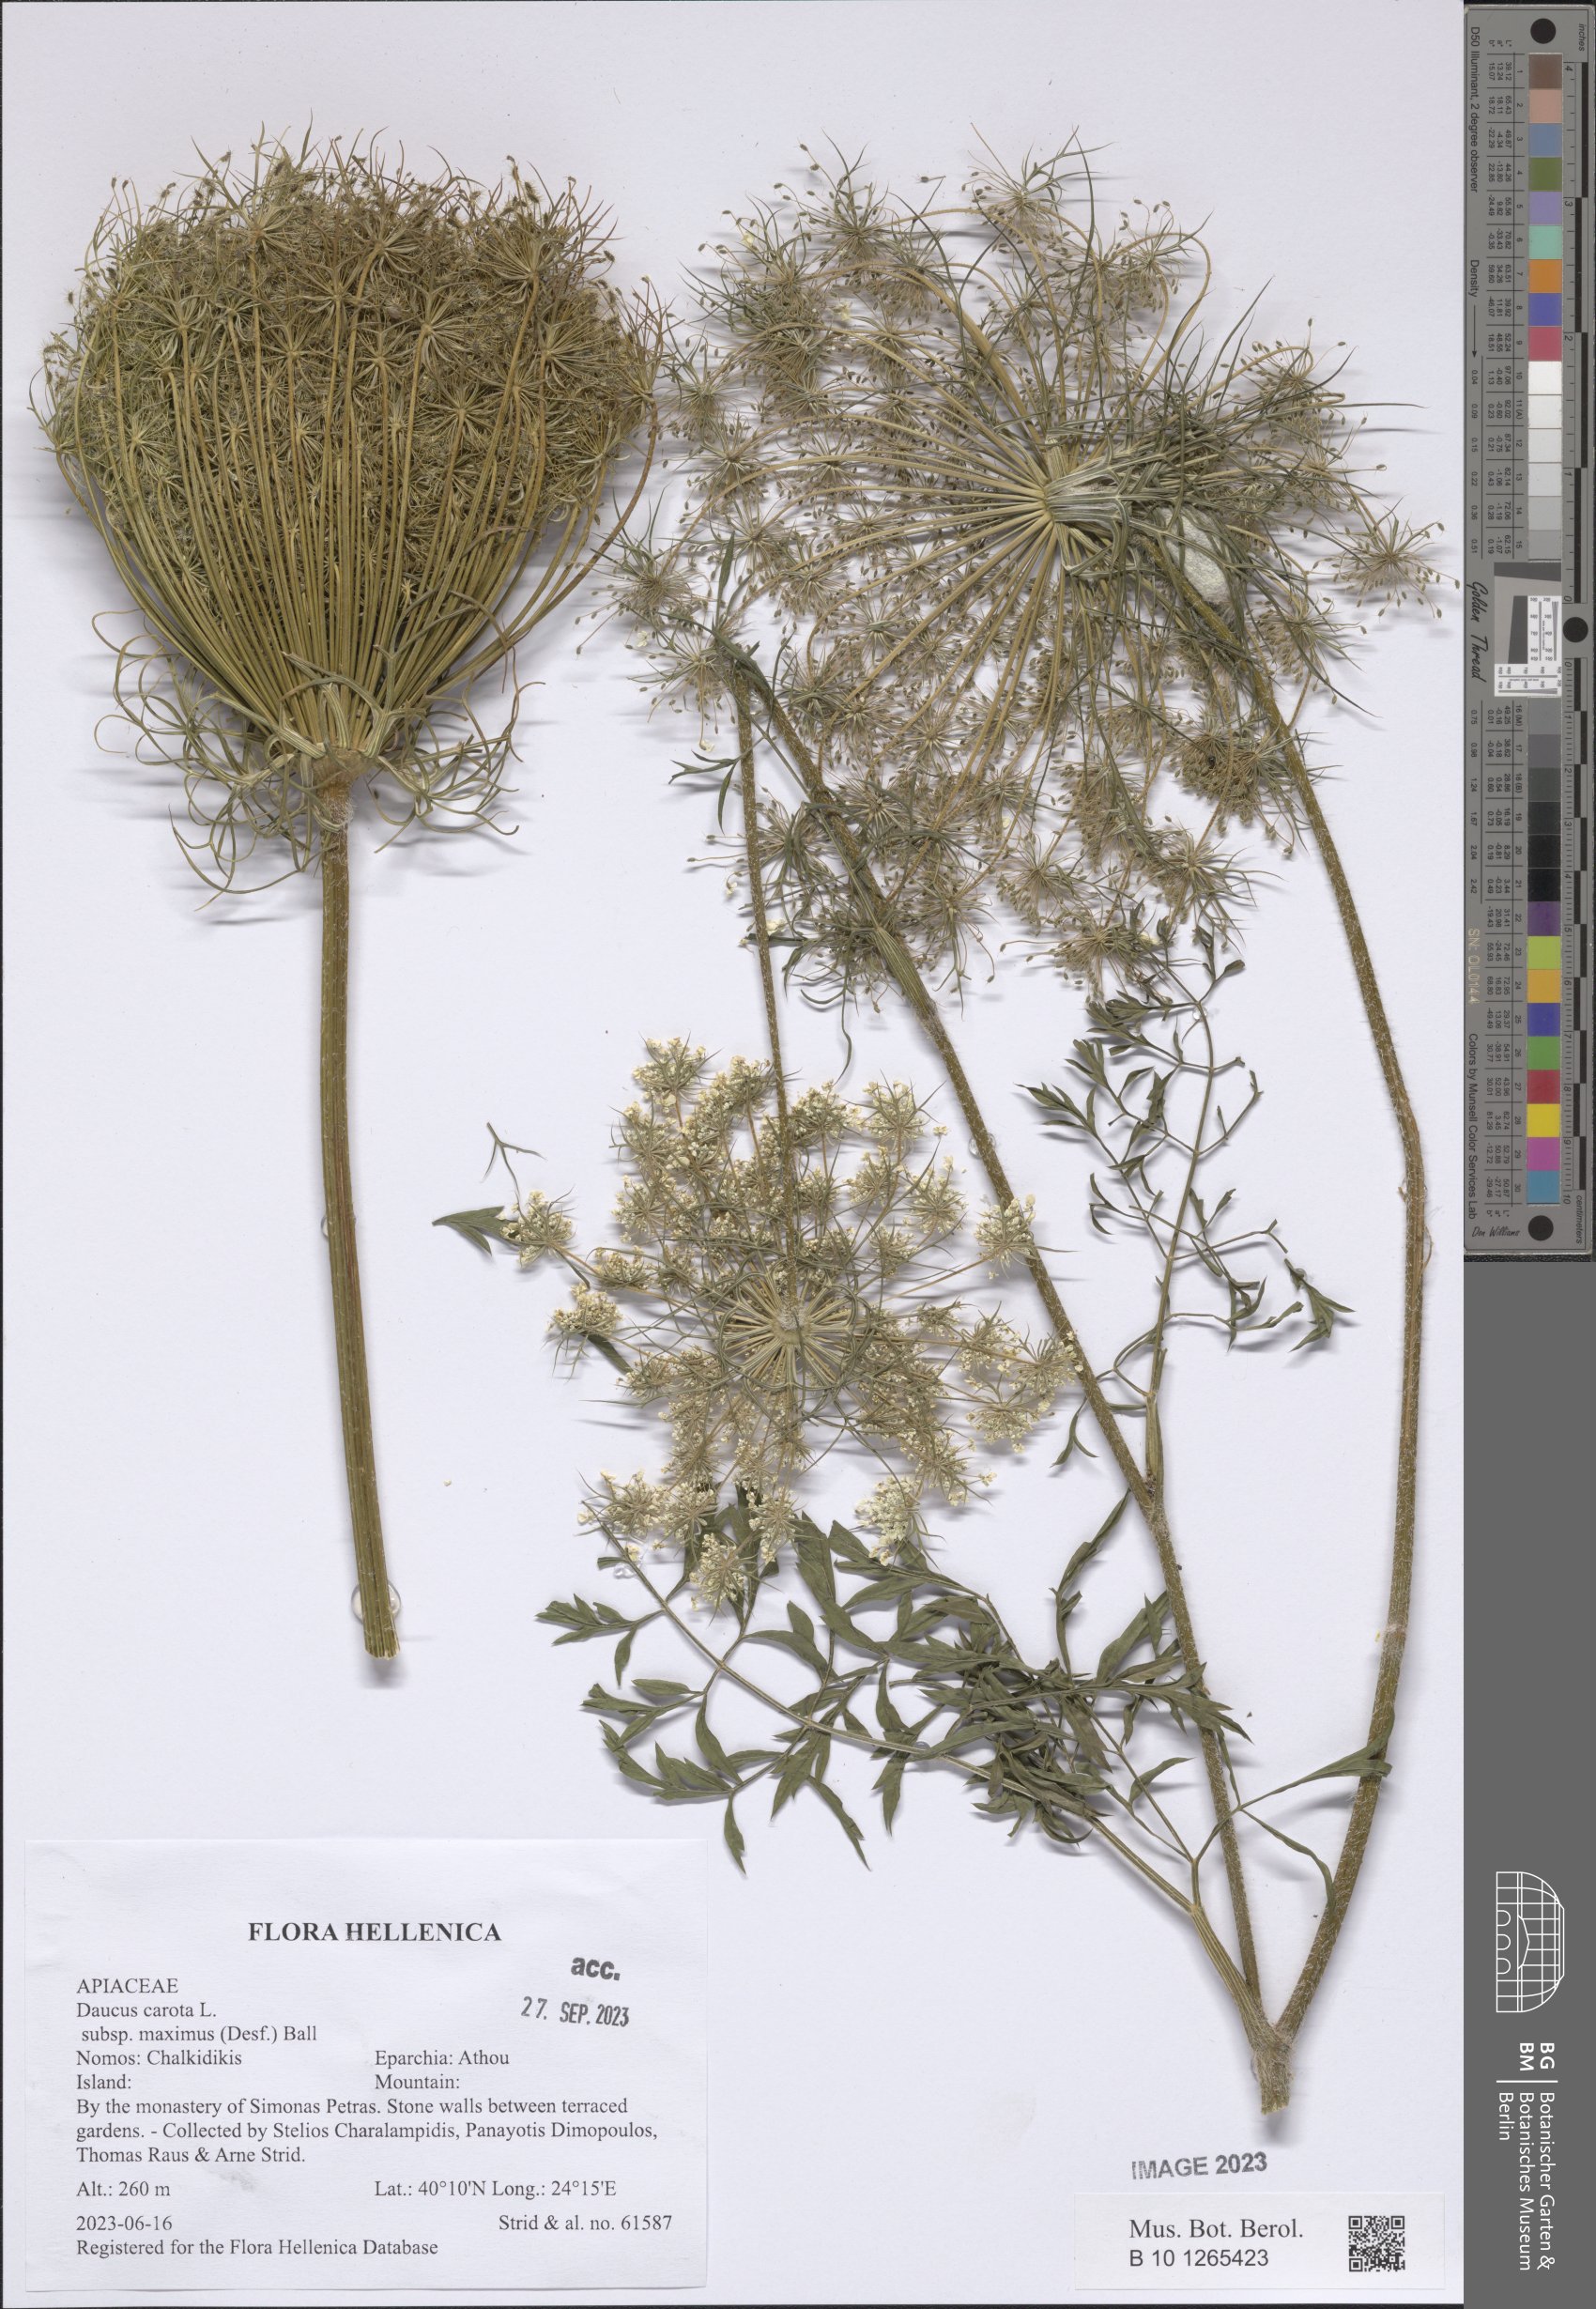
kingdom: Plantae
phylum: Tracheophyta
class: Magnoliopsida
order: Apiales
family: Apiaceae
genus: Daucus
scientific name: Daucus carota
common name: Wild carrot
